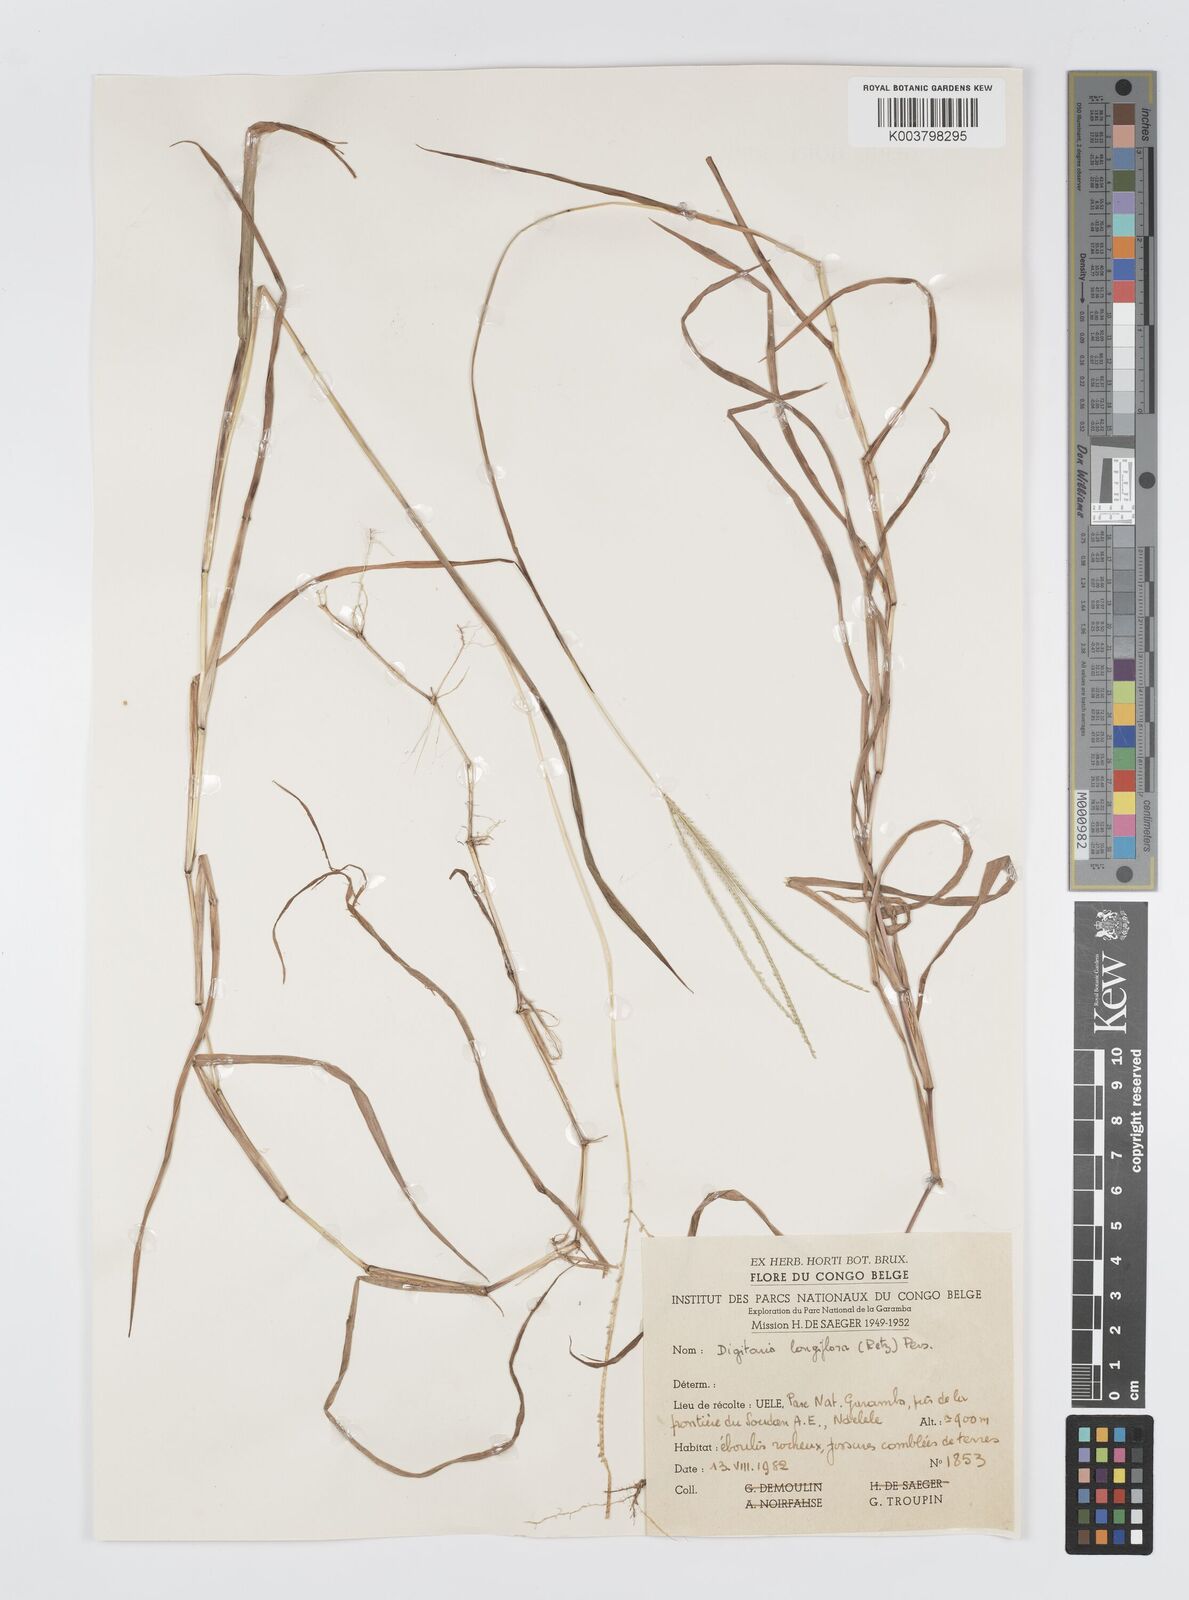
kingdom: Plantae
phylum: Tracheophyta
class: Liliopsida
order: Poales
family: Poaceae
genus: Digitaria
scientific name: Digitaria longiflora
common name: Wire crabgrass
